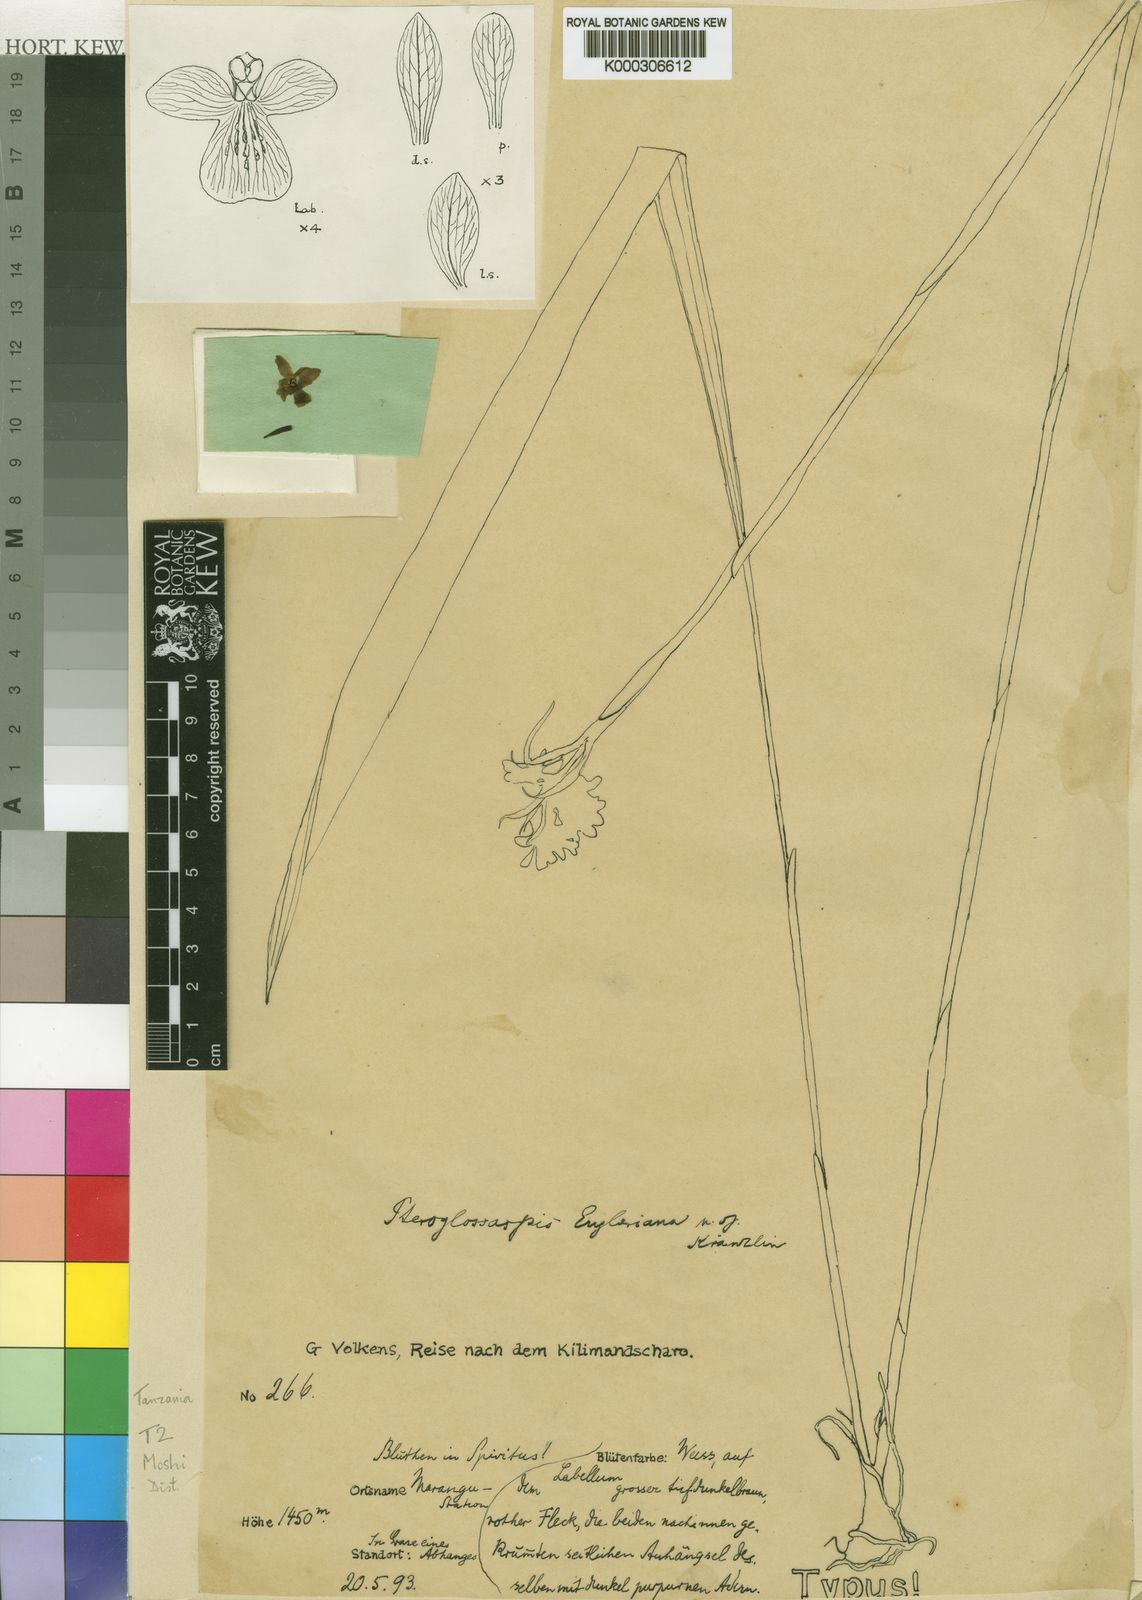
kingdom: Plantae
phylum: Tracheophyta
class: Liliopsida
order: Asparagales
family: Orchidaceae
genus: Eulophia
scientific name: Eulophia eustachya
